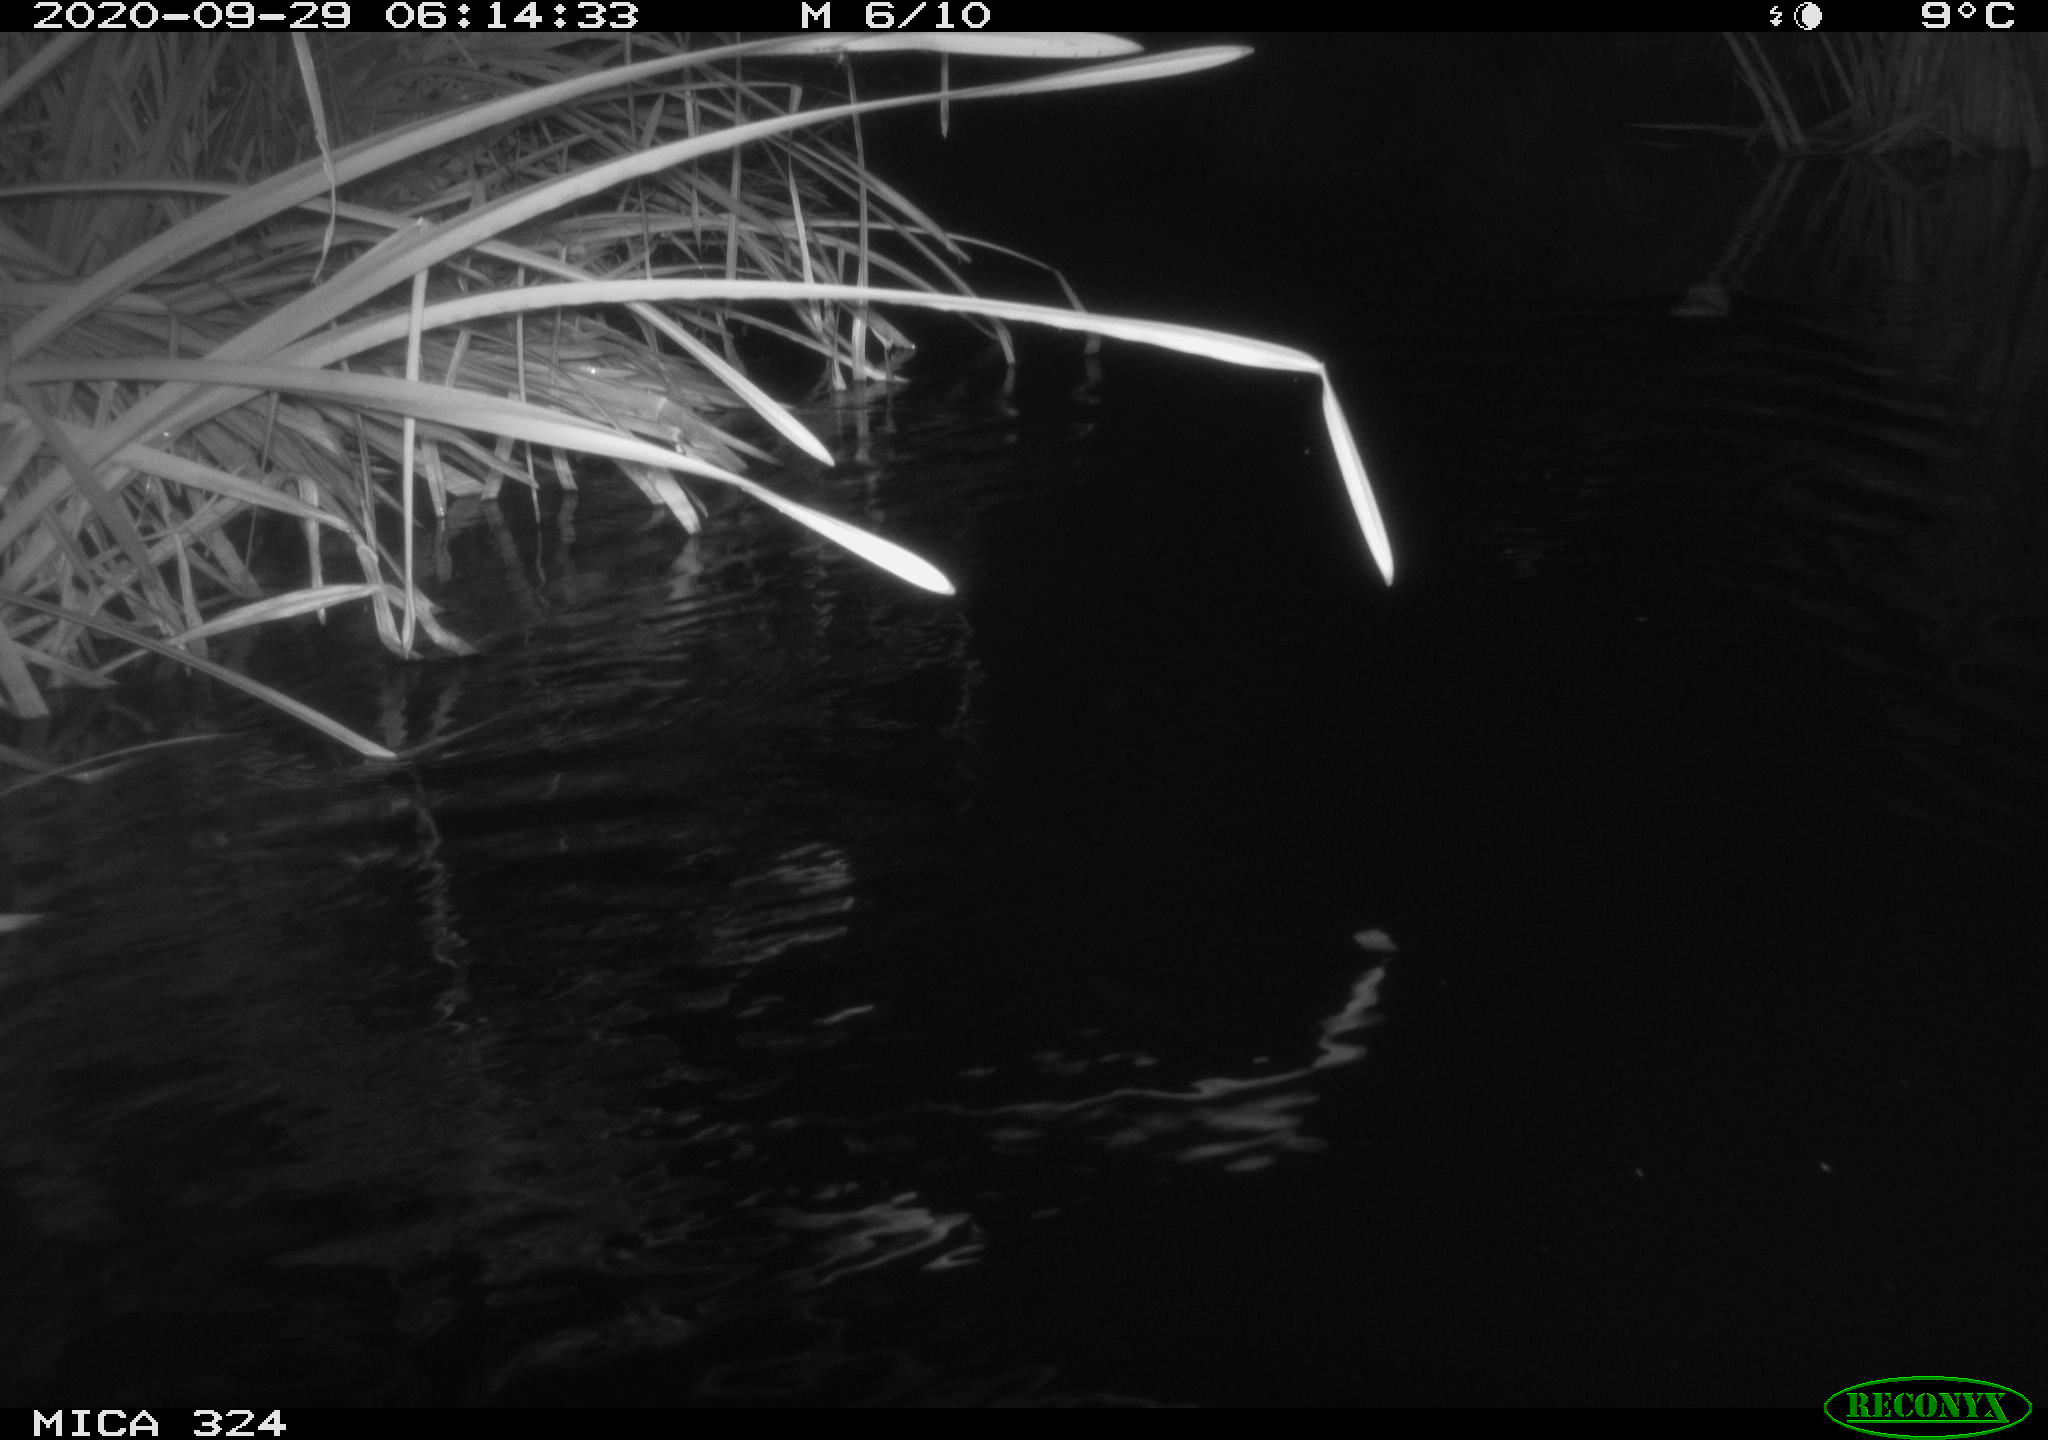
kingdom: Animalia
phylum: Chordata
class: Mammalia
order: Rodentia
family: Cricetidae
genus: Ondatra
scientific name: Ondatra zibethicus
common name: Muskrat
